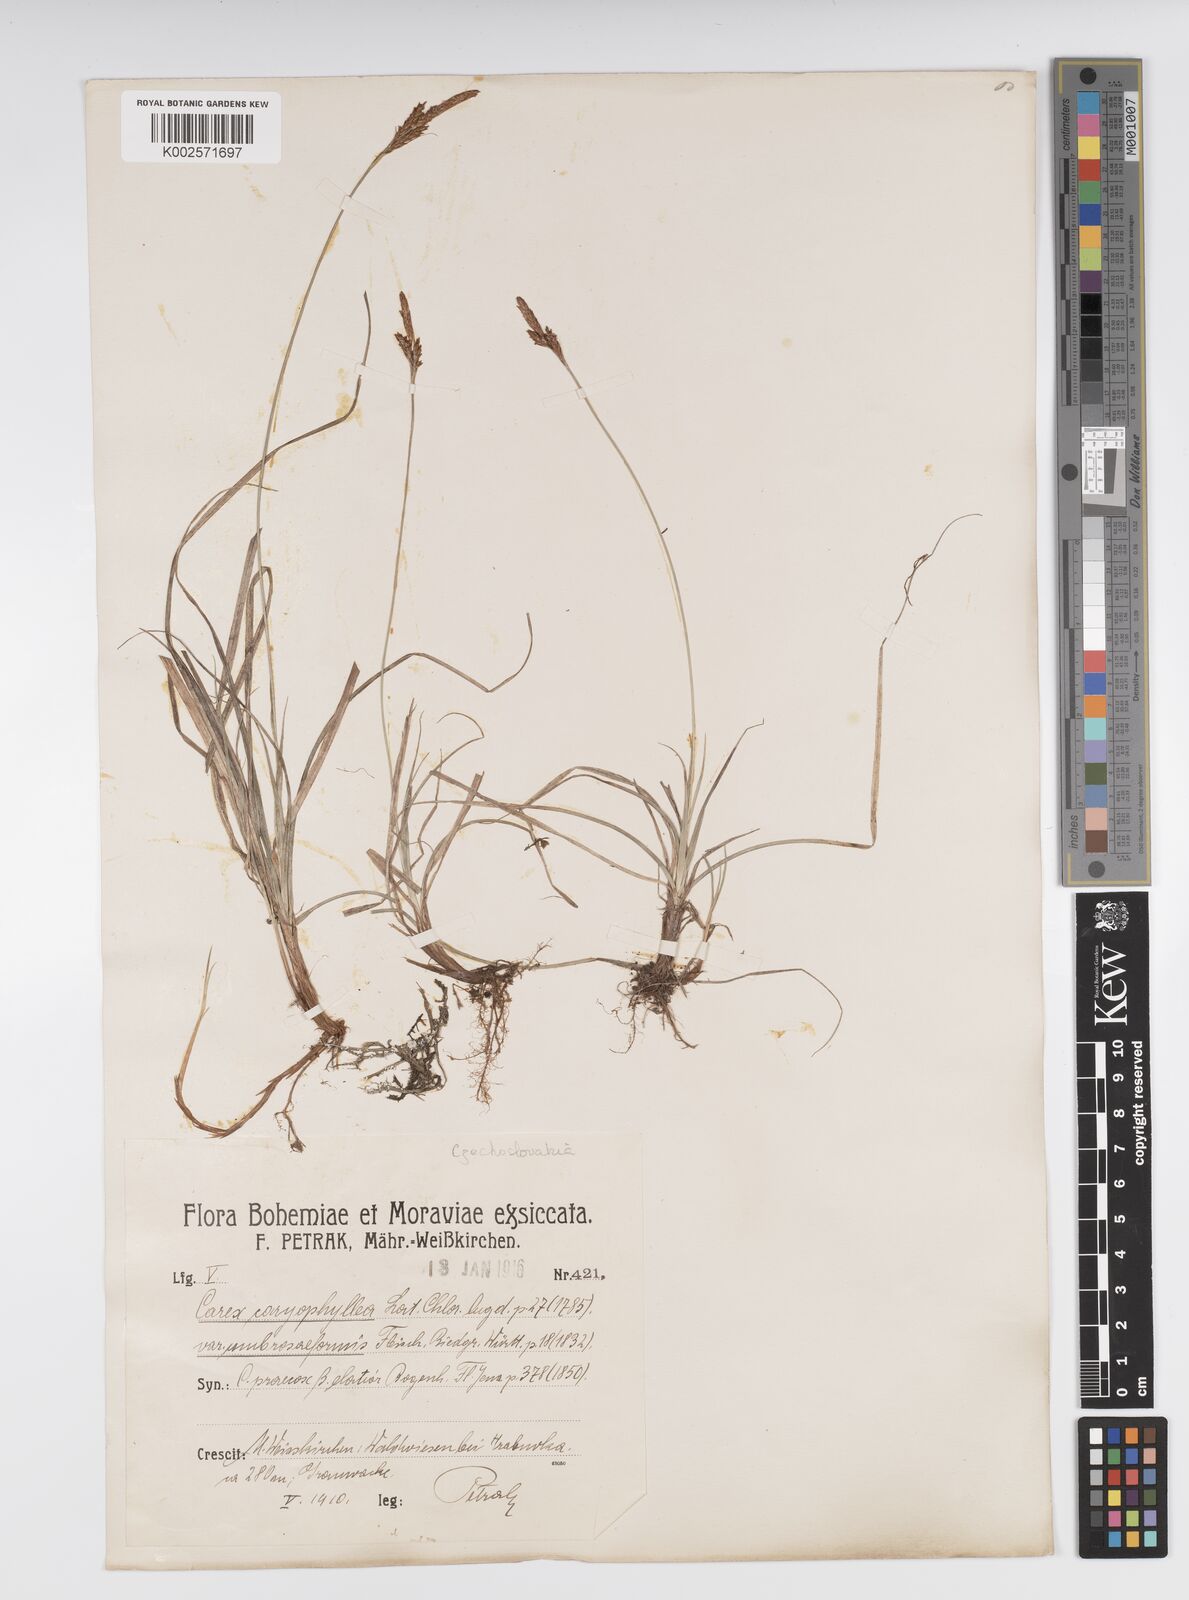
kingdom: Plantae
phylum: Tracheophyta
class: Liliopsida
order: Poales
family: Cyperaceae
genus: Carex
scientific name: Carex caryophyllea
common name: Spring sedge
